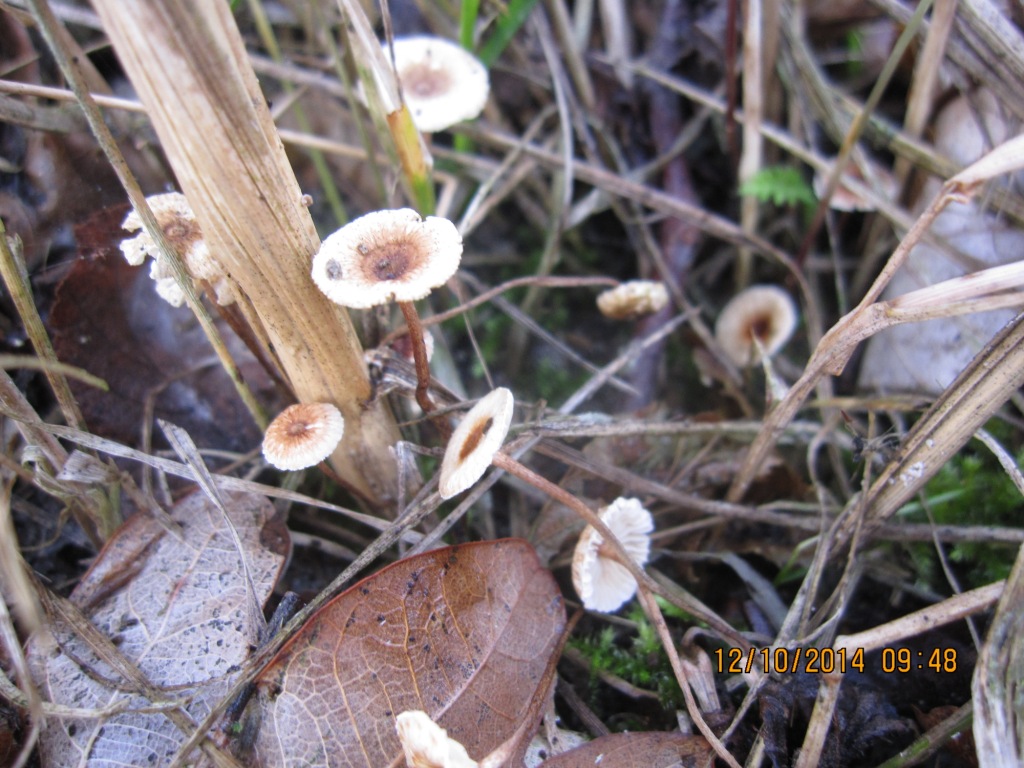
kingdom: Fungi
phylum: Basidiomycota
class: Agaricomycetes
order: Agaricales
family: Marasmiaceae
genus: Crinipellis
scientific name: Crinipellis scabella
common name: børstefod
